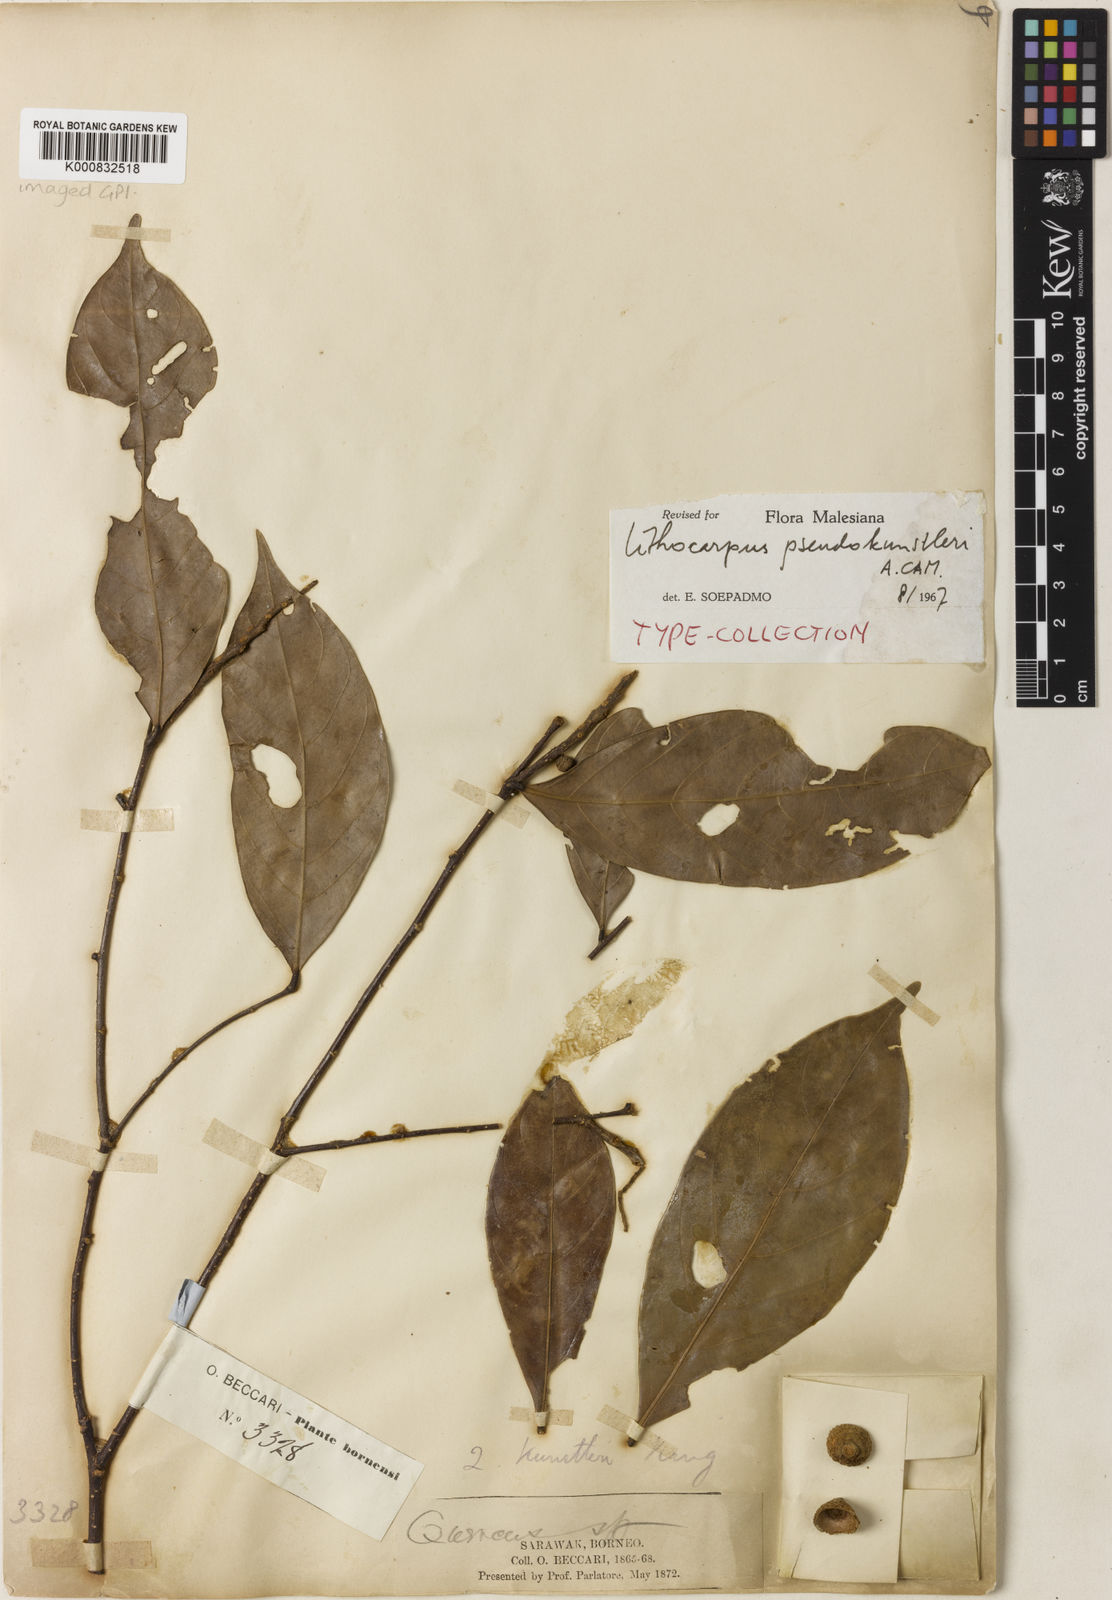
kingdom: Plantae
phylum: Tracheophyta
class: Magnoliopsida
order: Fagales
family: Fagaceae
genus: Lithocarpus
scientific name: Lithocarpus pseudokunstleri
